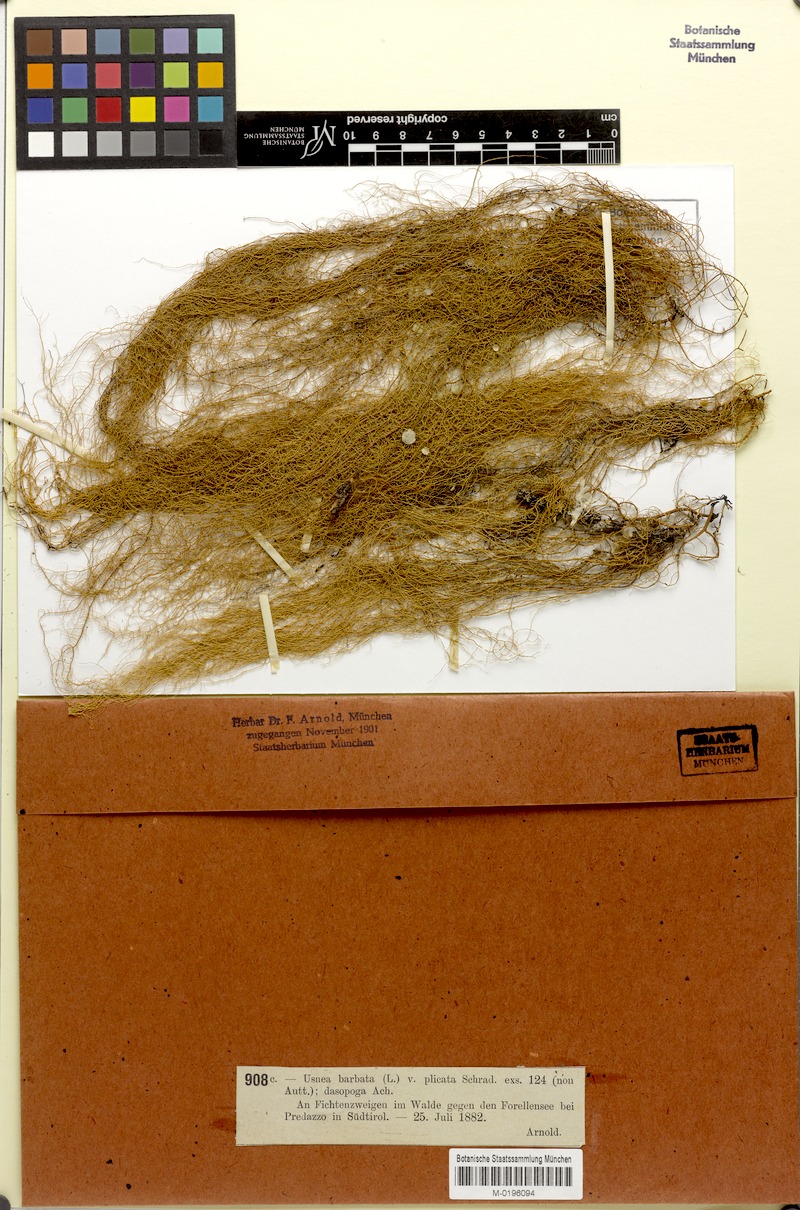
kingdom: Fungi
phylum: Ascomycota
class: Lecanoromycetes
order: Lecanorales
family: Parmeliaceae
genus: Usnea
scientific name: Usnea plicata
